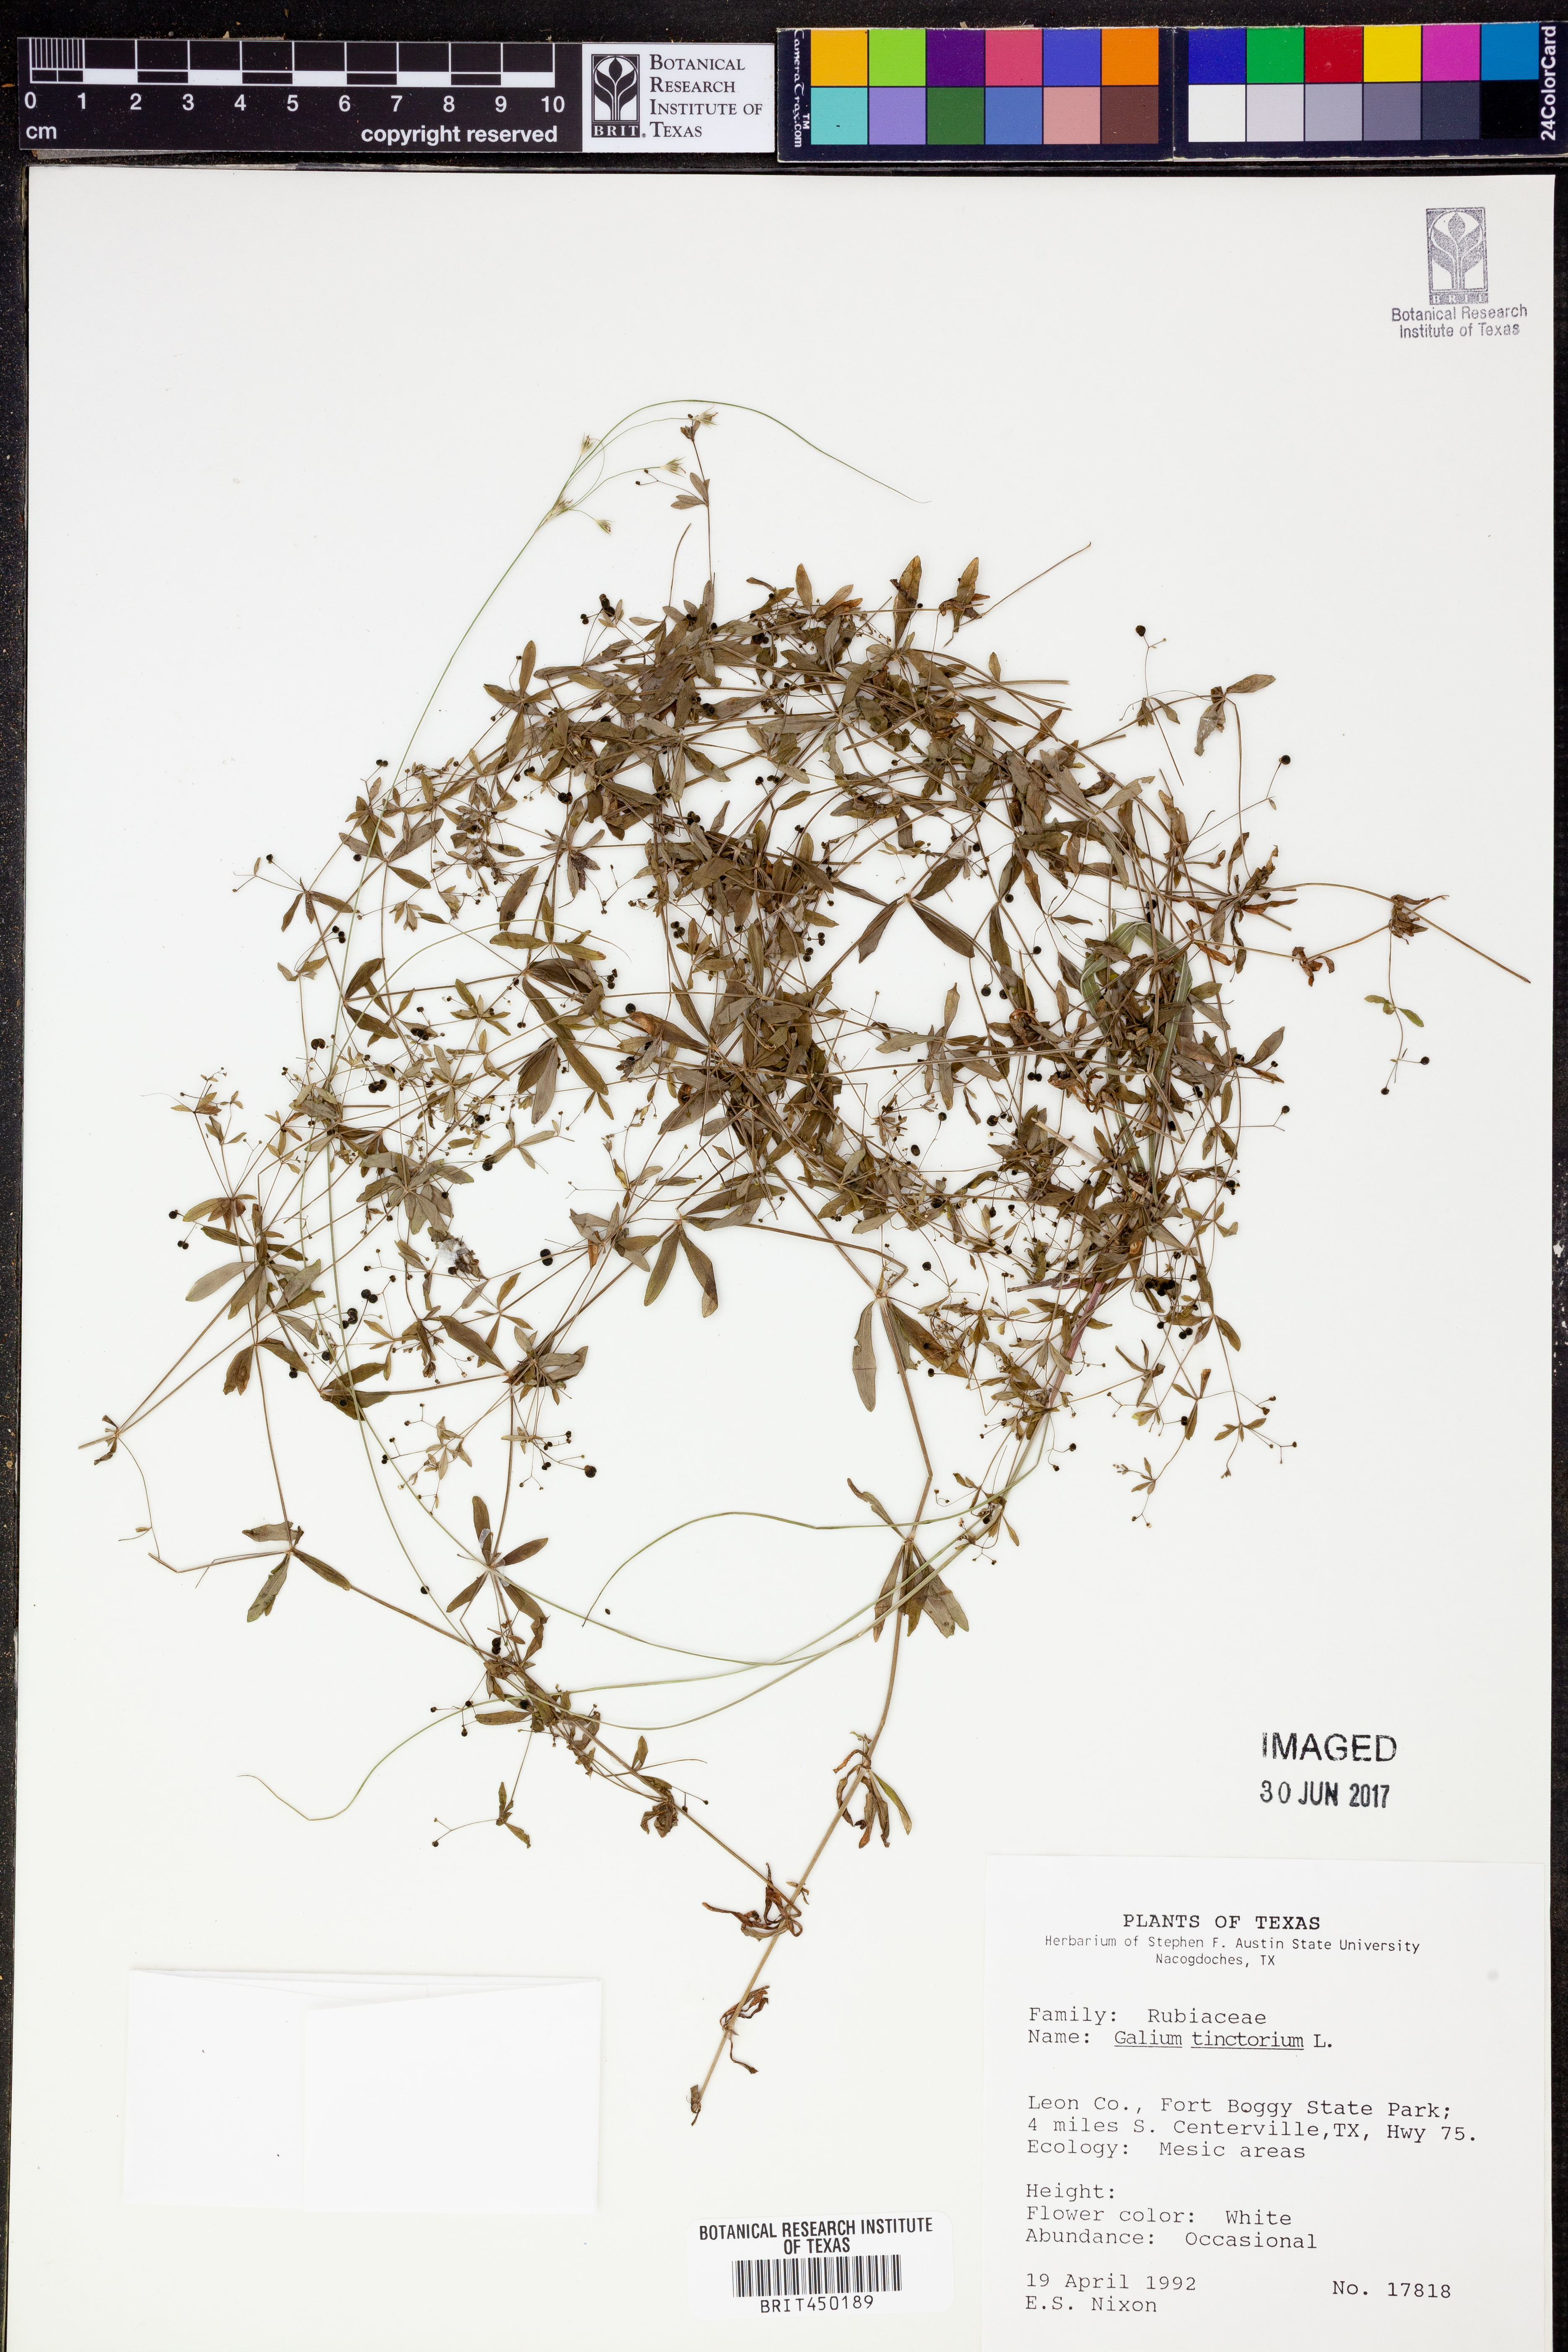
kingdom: Plantae
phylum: Tracheophyta
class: Magnoliopsida
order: Gentianales
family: Rubiaceae
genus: Asperula
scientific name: Asperula tinctoria
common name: Dyer's woodruff
